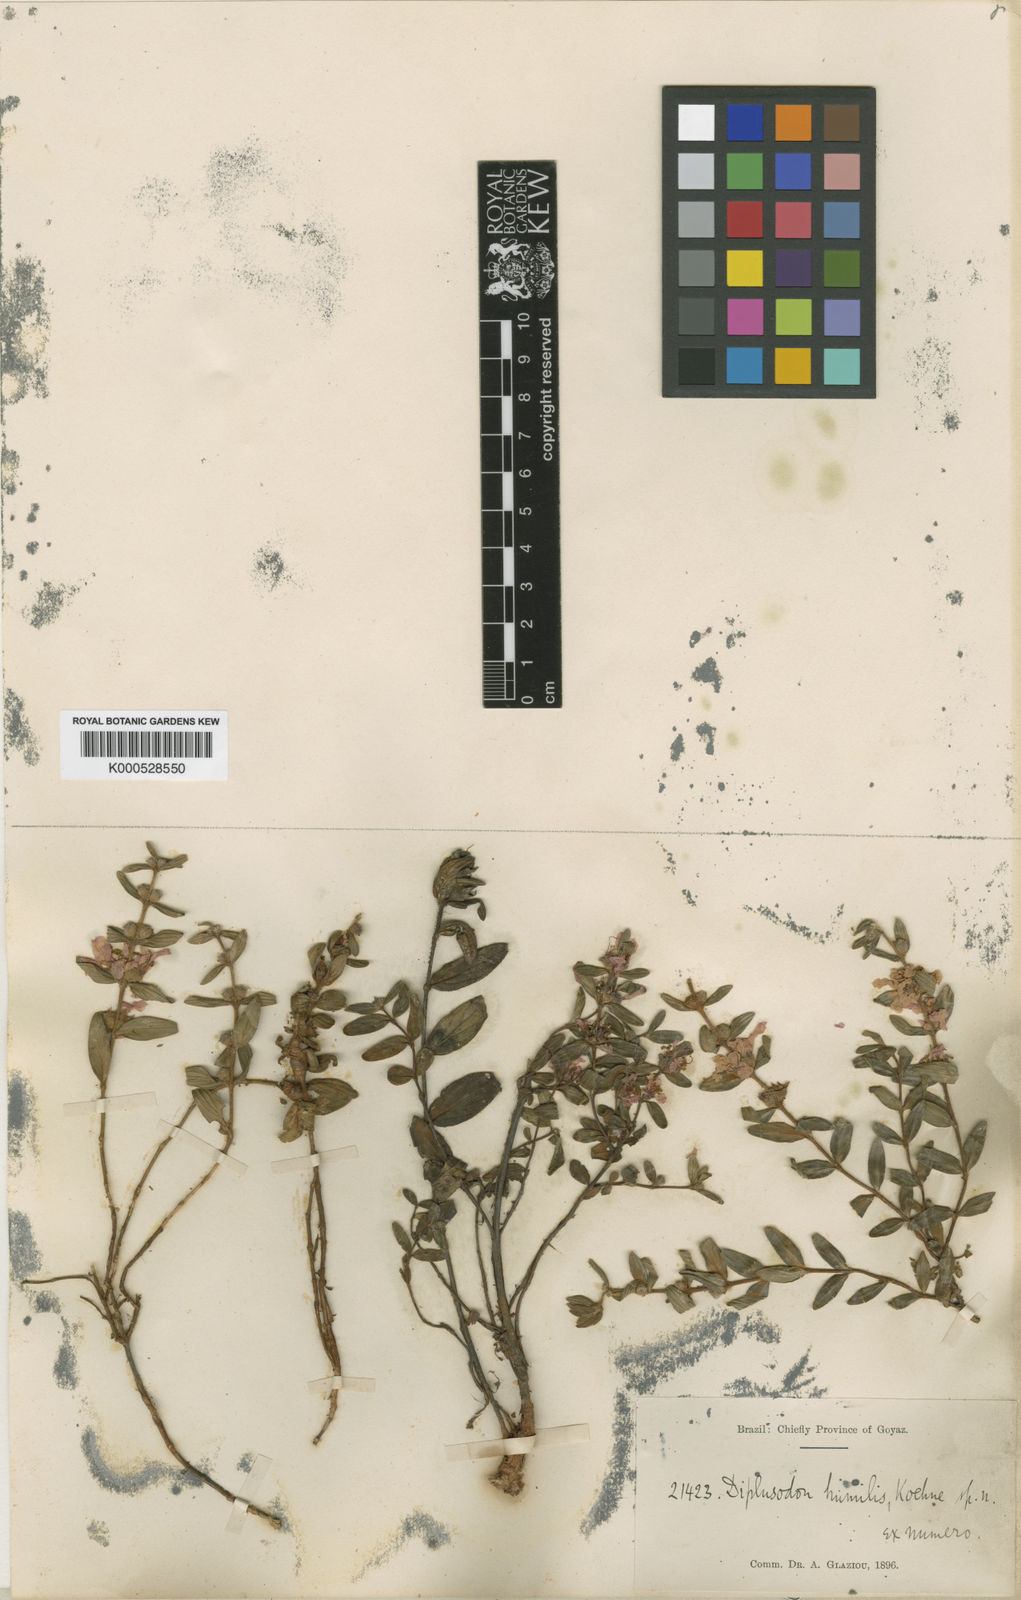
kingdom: Plantae
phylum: Tracheophyta
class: Magnoliopsida
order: Myrtales
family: Lythraceae
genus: Diplusodon
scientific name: Diplusodon villosus
